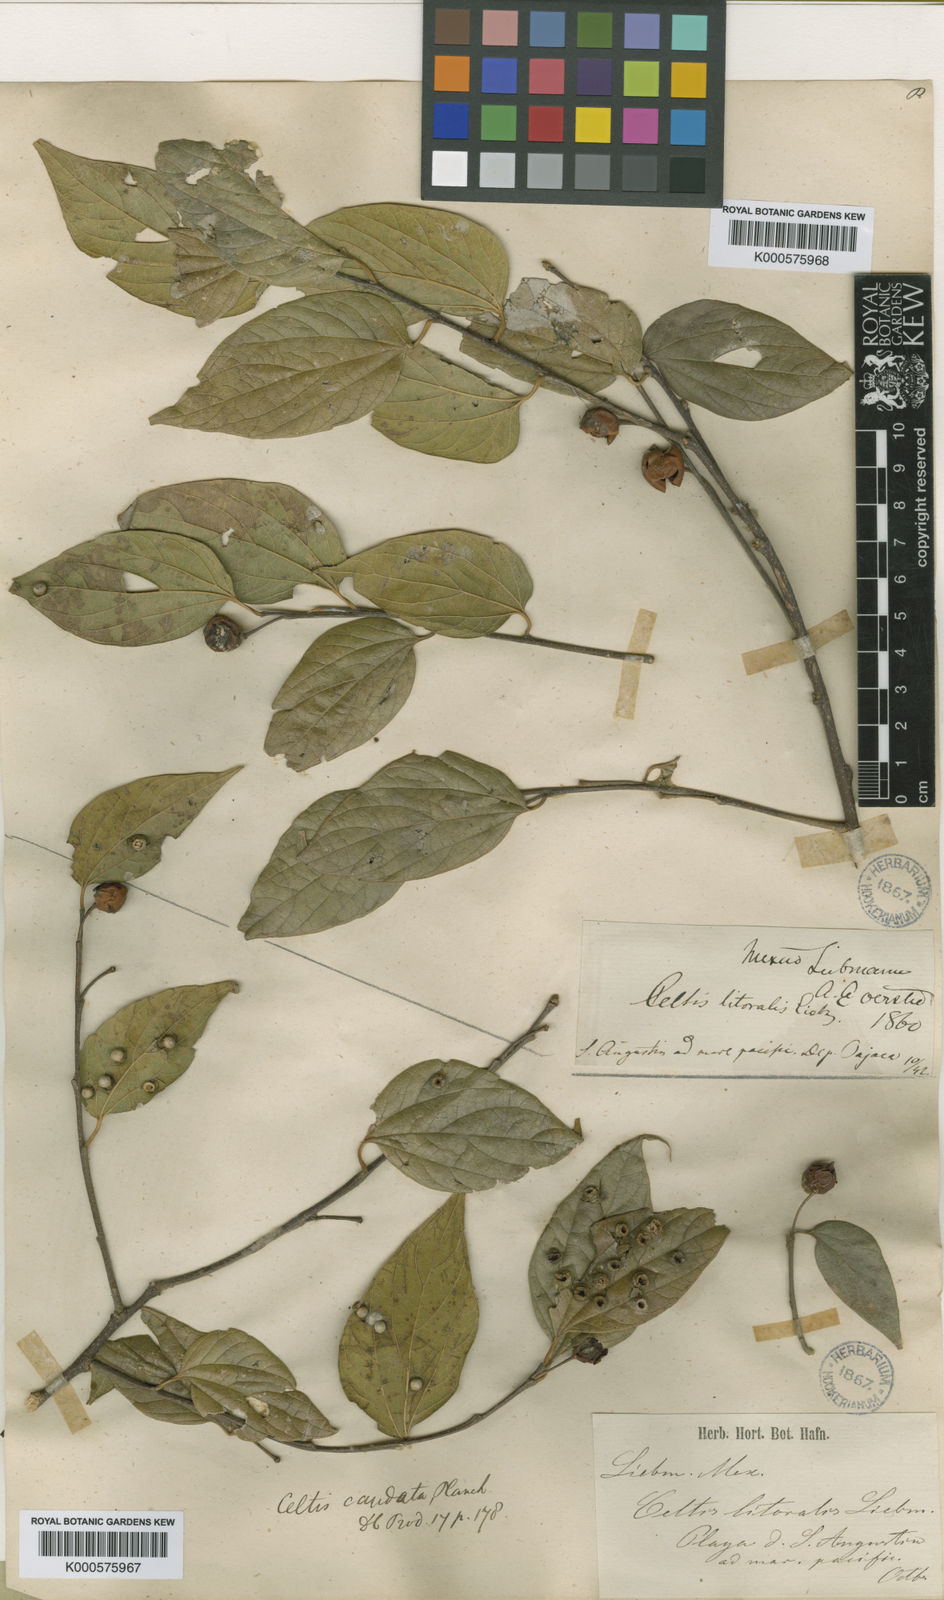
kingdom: Plantae
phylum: Tracheophyta
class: Magnoliopsida
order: Rosales
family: Cannabaceae
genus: Celtis
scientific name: Celtis caudata
